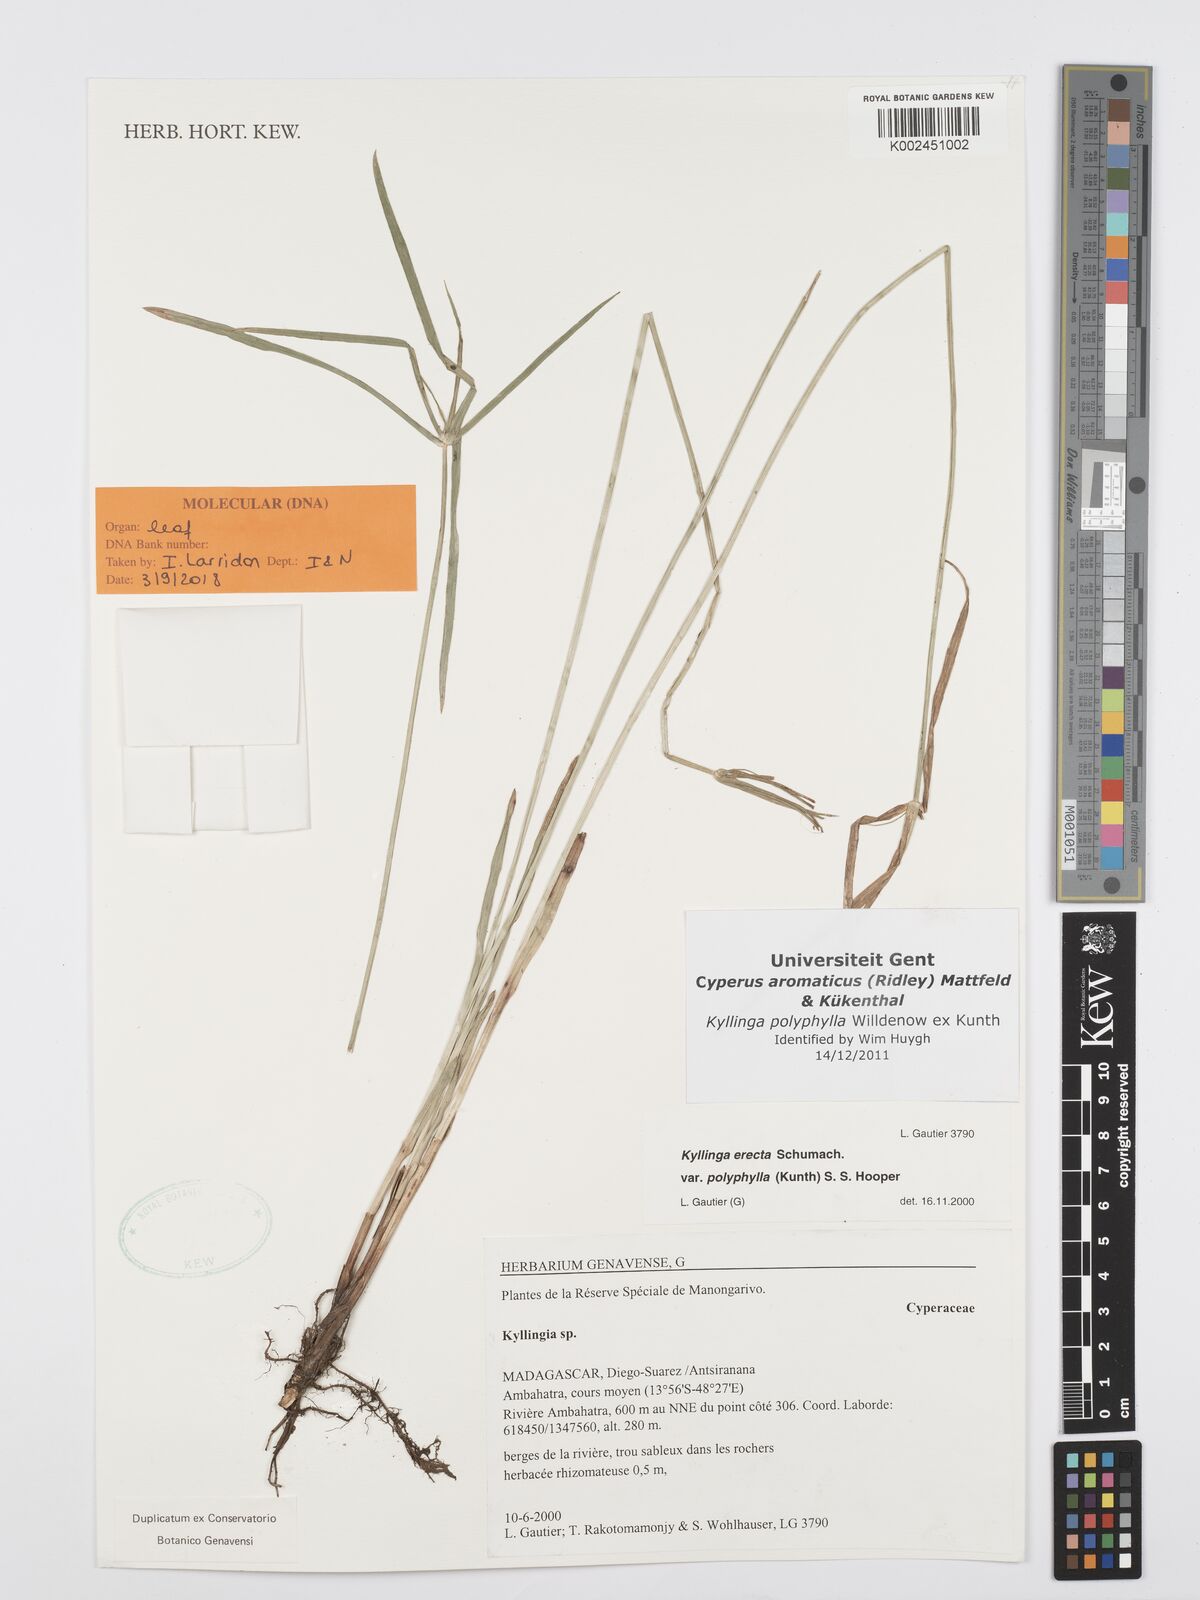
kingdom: Plantae
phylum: Tracheophyta
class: Liliopsida
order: Poales
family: Cyperaceae
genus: Cyperus
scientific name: Cyperus
